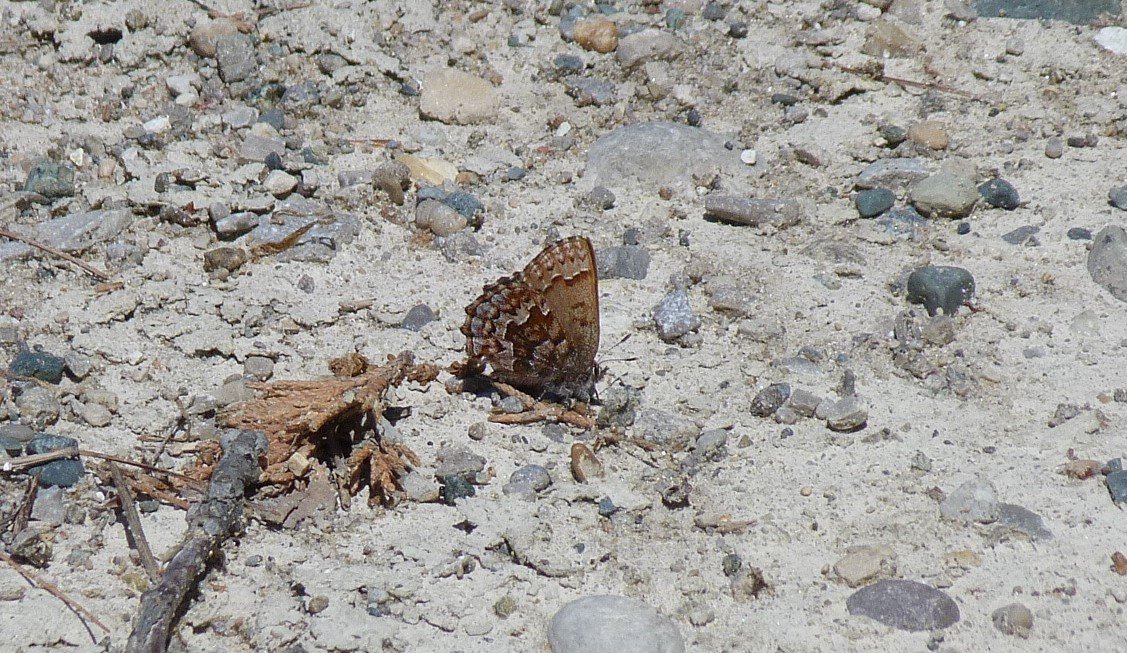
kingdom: Animalia
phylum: Arthropoda
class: Insecta
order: Lepidoptera
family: Lycaenidae
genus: Incisalia
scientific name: Incisalia niphon
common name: Eastern Pine Elfin
